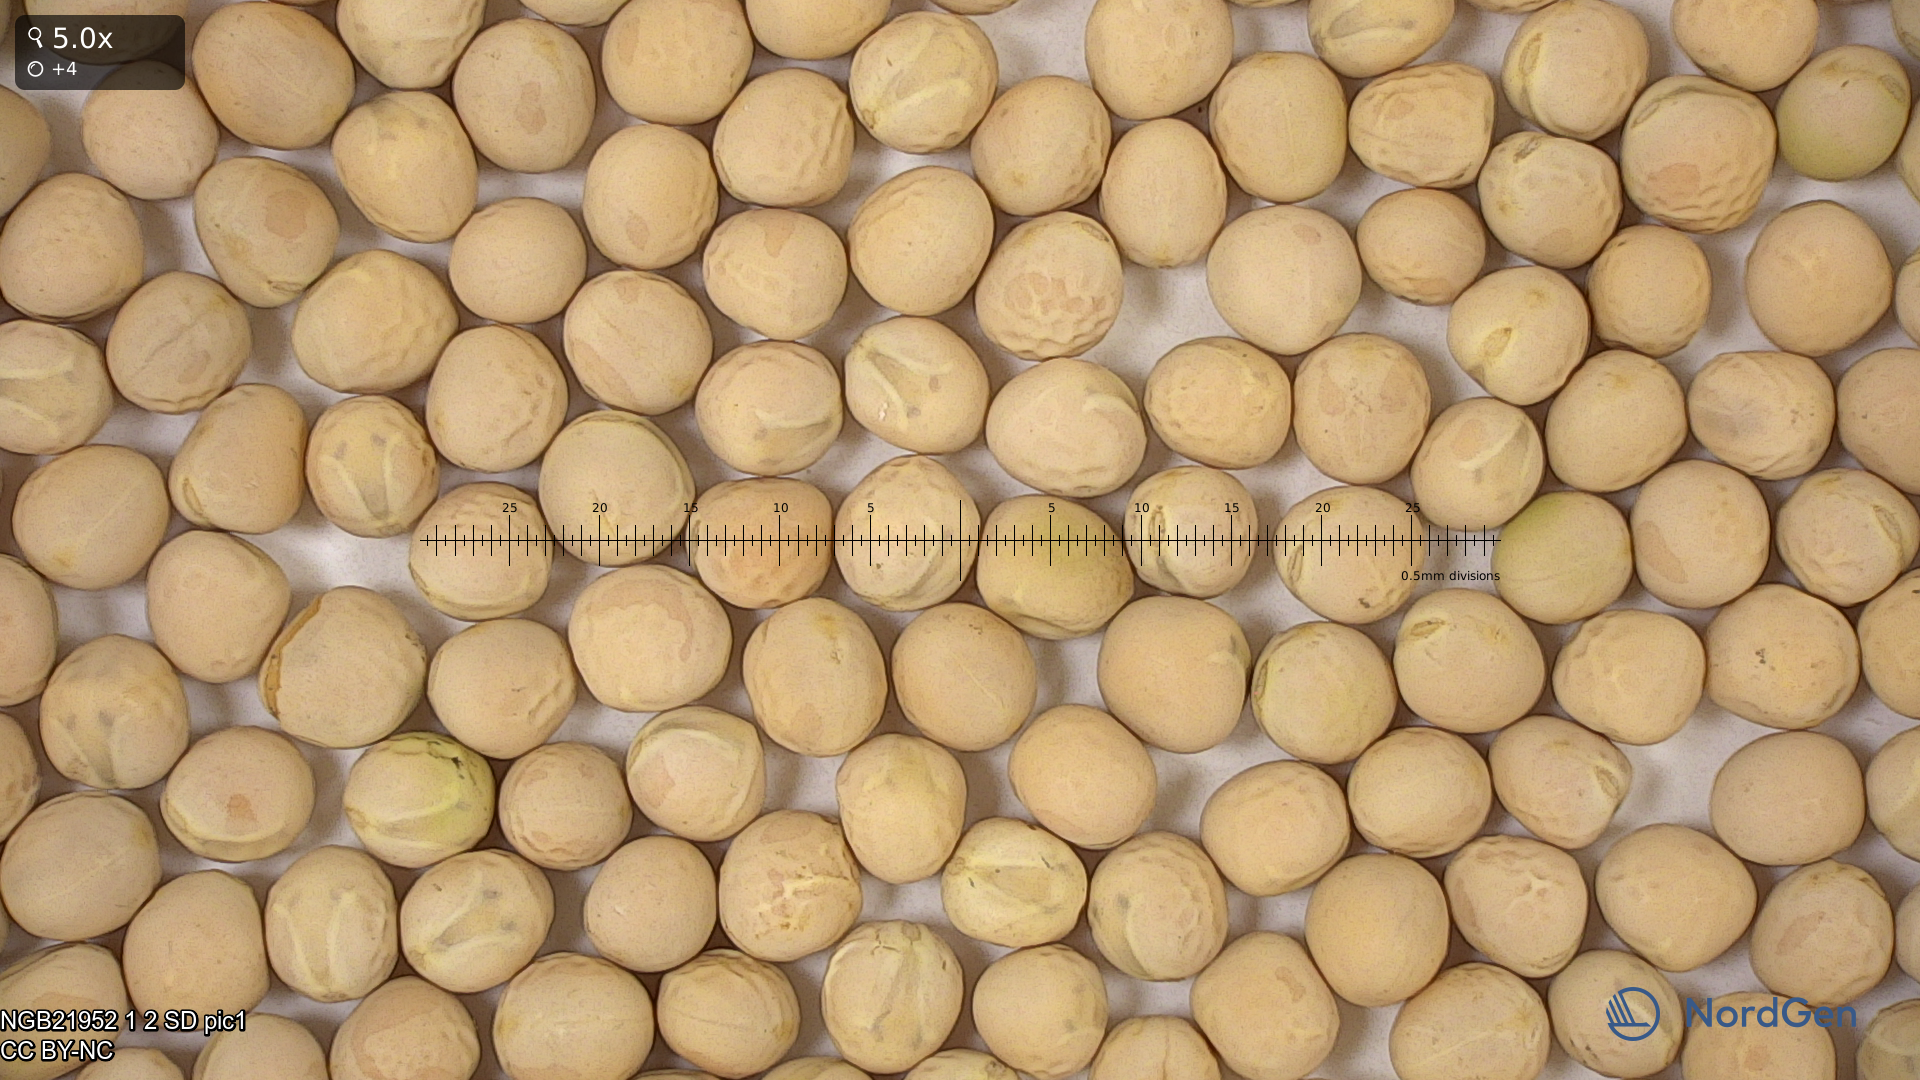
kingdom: Plantae
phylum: Tracheophyta
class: Magnoliopsida
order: Fabales
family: Fabaceae
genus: Lathyrus
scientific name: Lathyrus oleraceus
